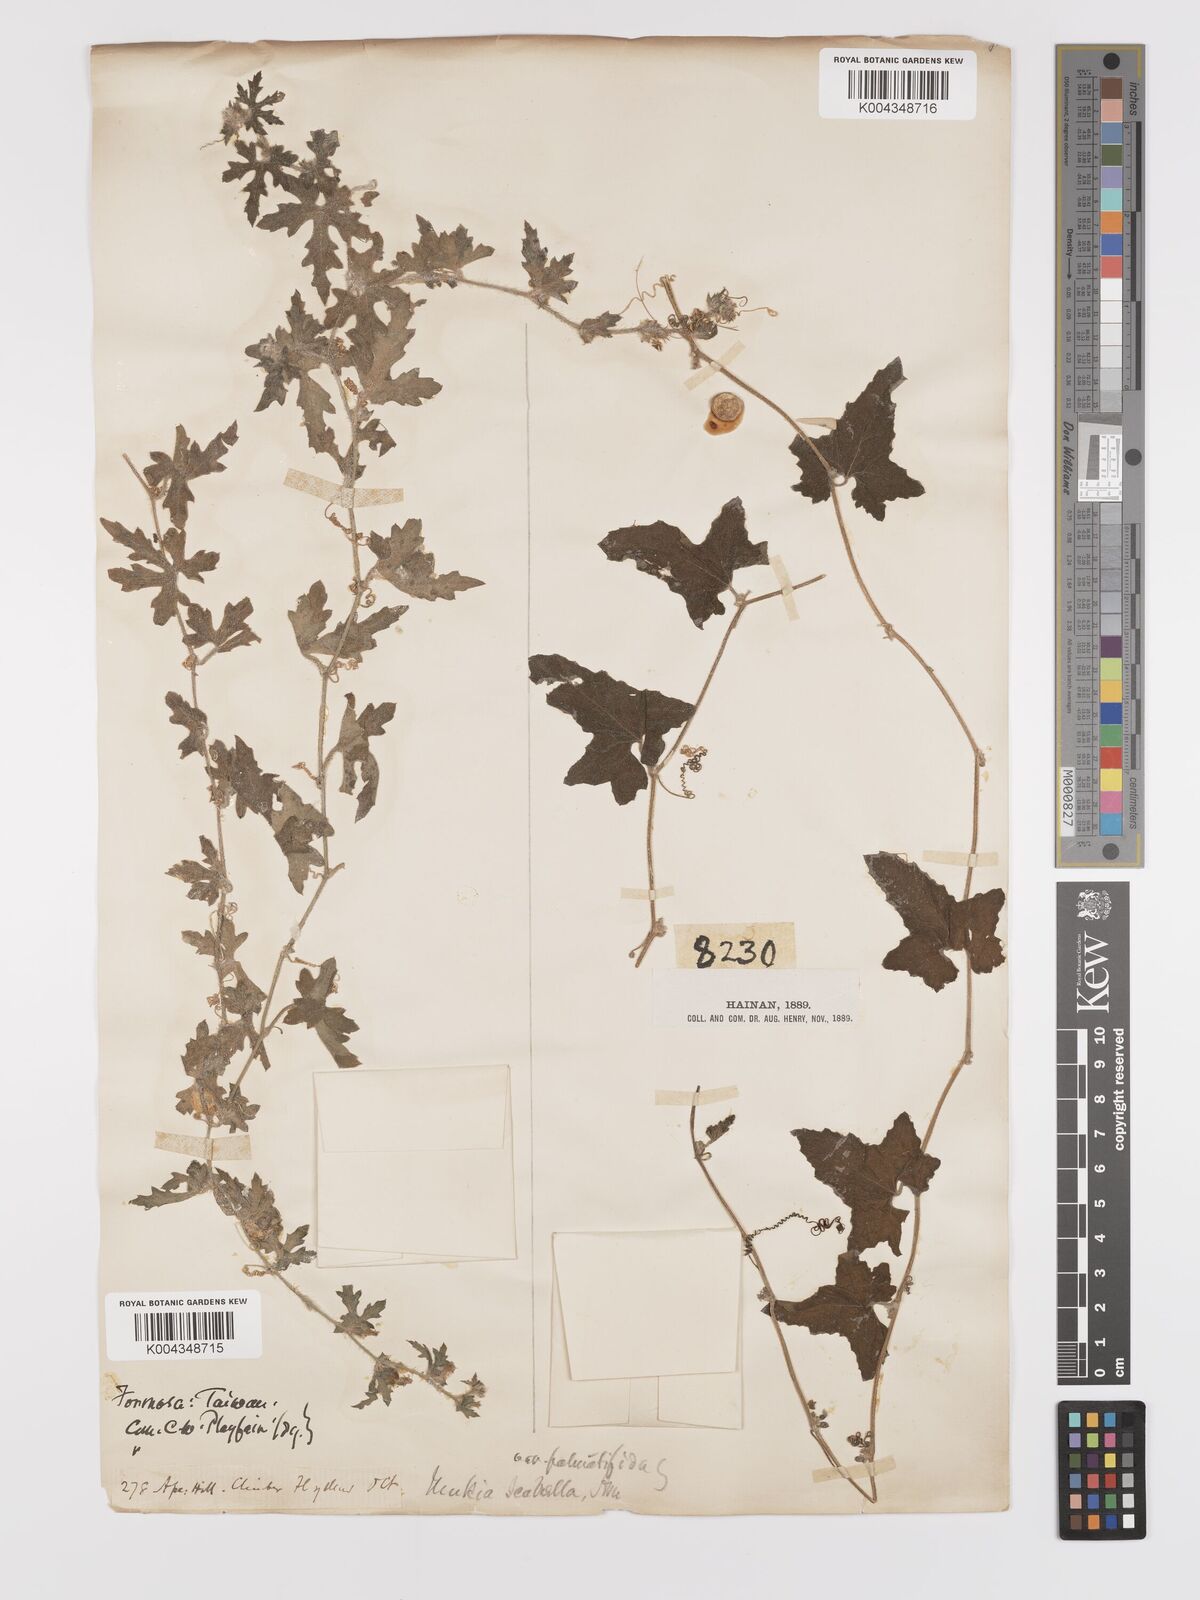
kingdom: Plantae
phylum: Tracheophyta
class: Magnoliopsida
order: Cucurbitales
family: Cucurbitaceae
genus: Cucumis
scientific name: Cucumis maderaspatanus
